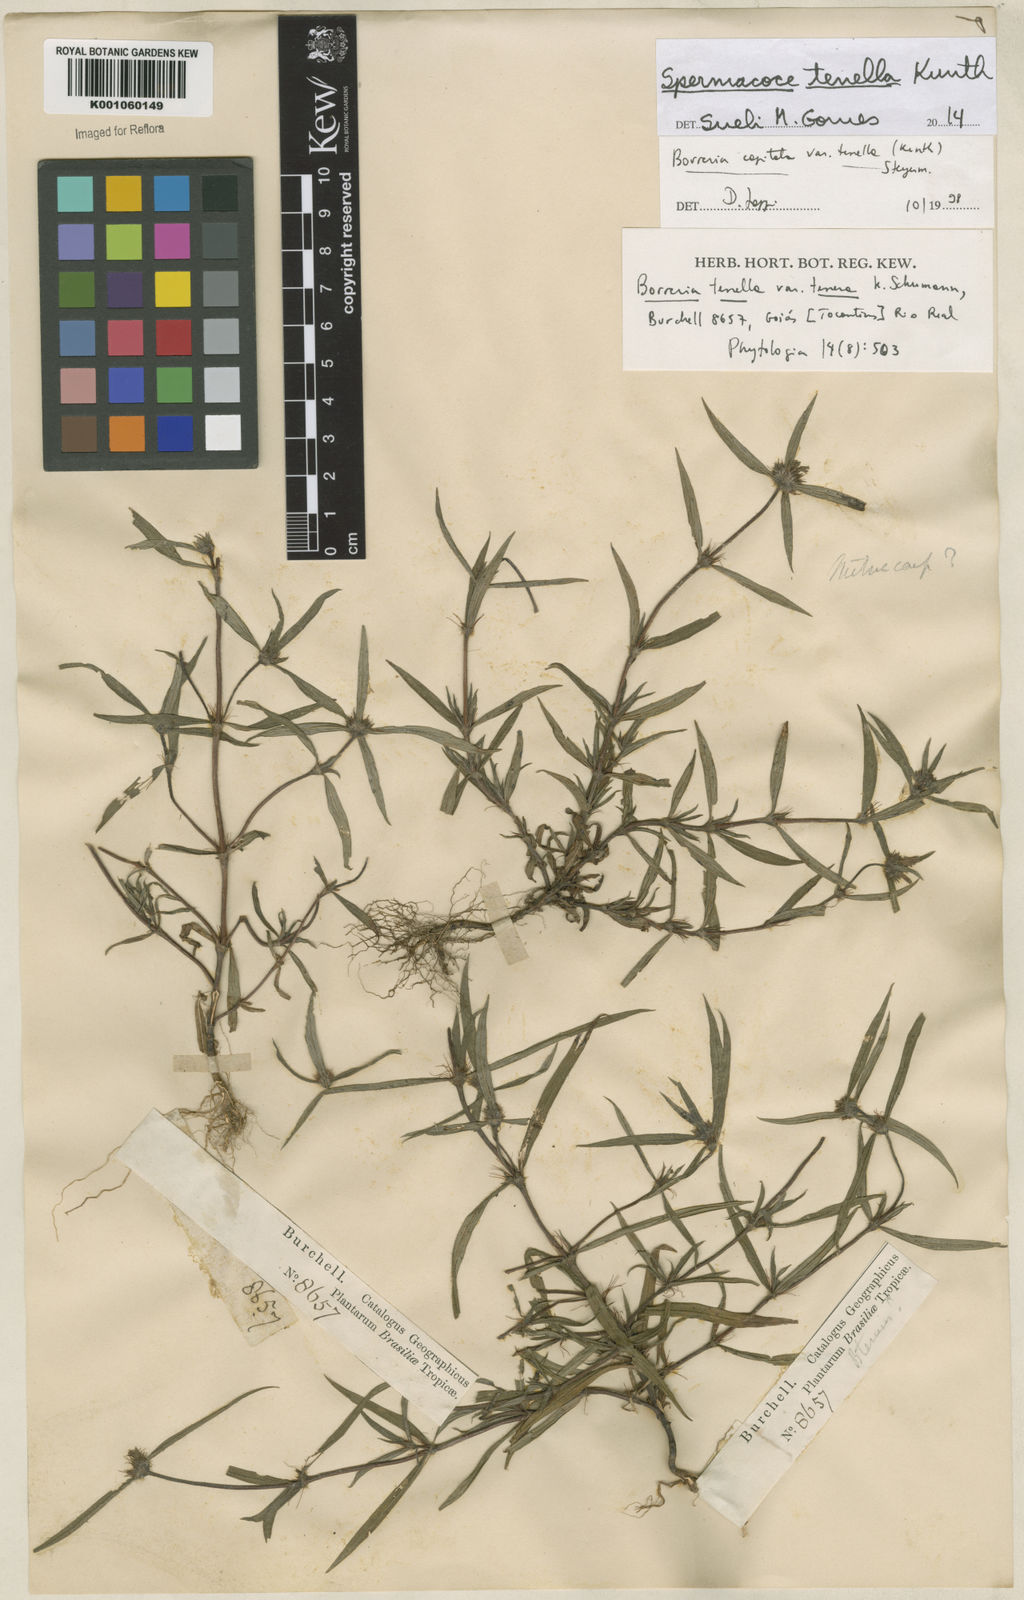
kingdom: Plantae
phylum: Tracheophyta
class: Magnoliopsida
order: Gentianales
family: Rubiaceae
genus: Spermacoce
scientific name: Spermacoce orinocensis
